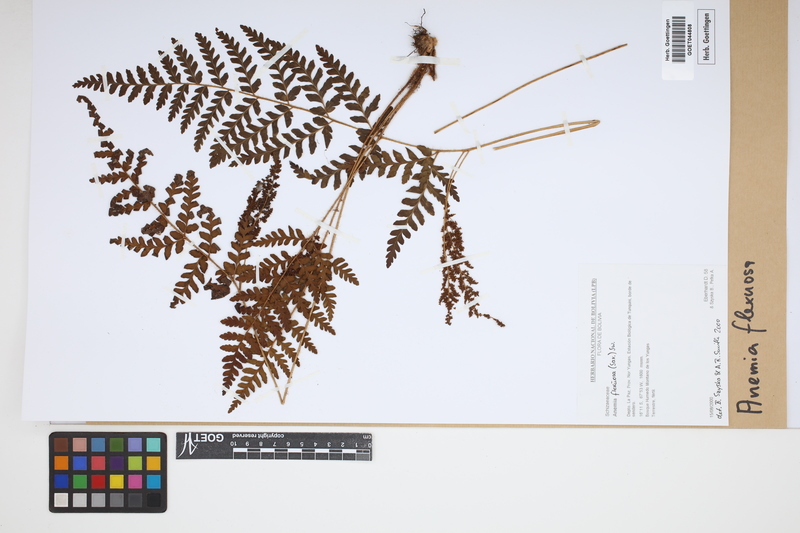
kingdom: Plantae
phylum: Tracheophyta
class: Polypodiopsida
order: Schizaeales
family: Anemiaceae
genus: Anemia
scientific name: Anemia flexuosa
